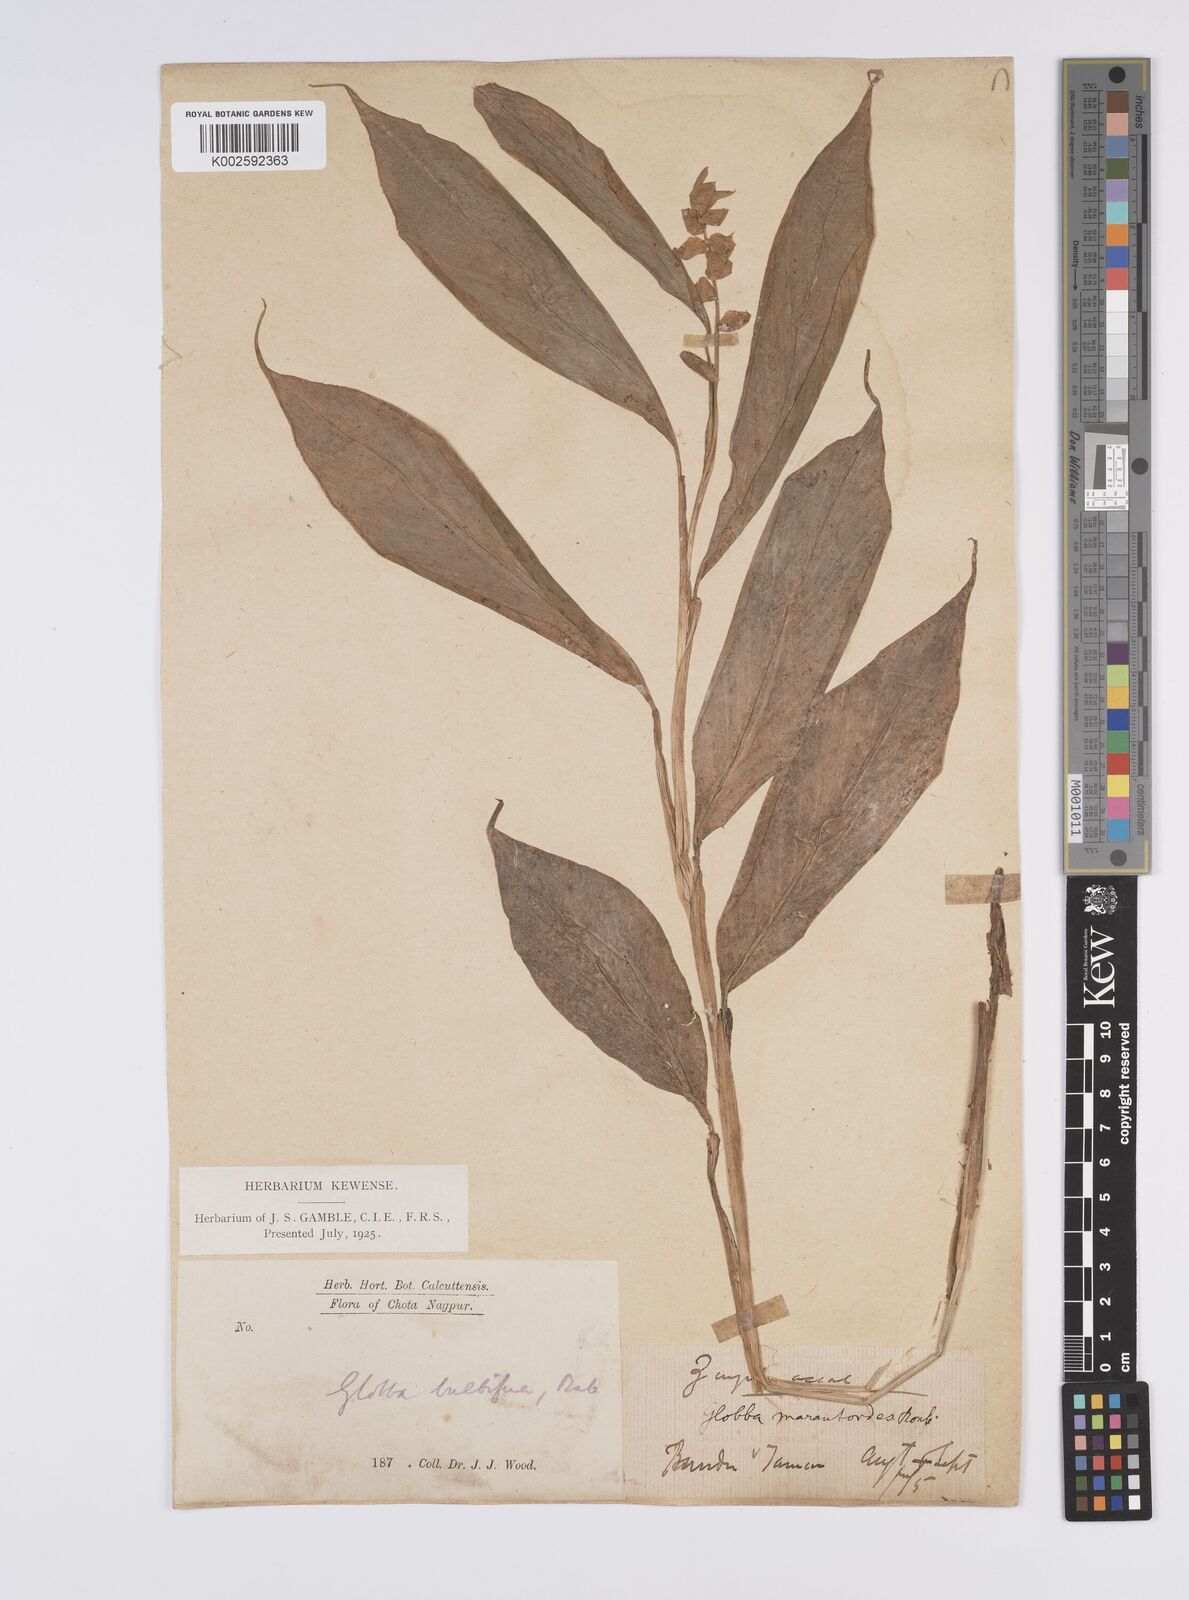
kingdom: Plantae
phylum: Tracheophyta
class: Liliopsida
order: Zingiberales
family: Zingiberaceae
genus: Globba
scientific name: Globba marantina
